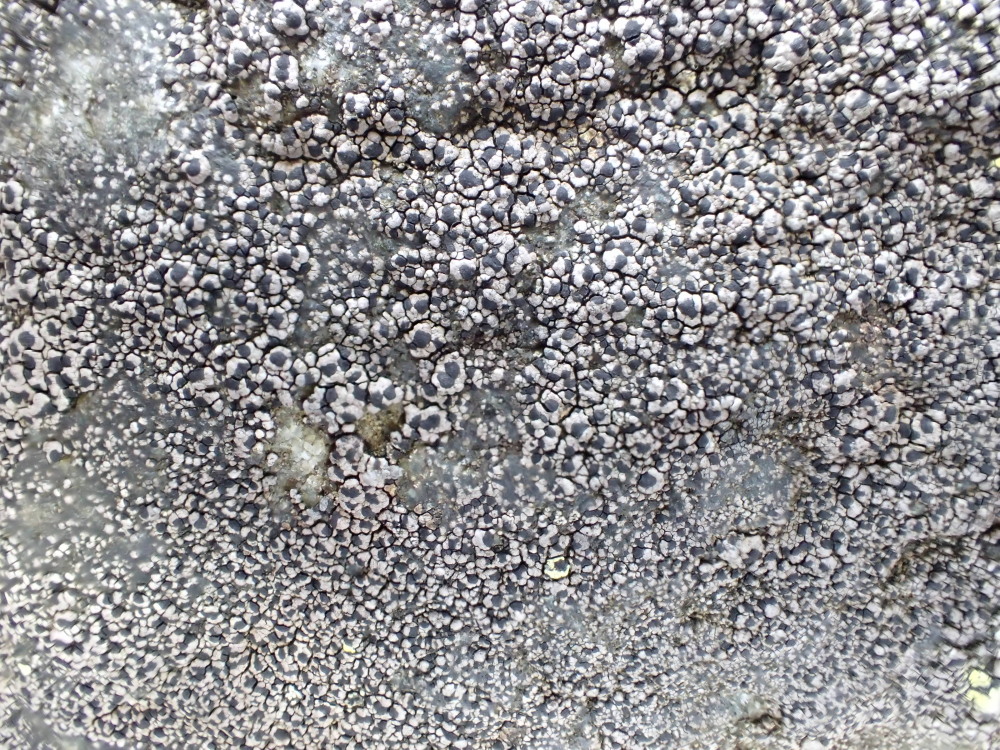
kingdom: Fungi
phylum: Ascomycota
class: Lecanoromycetes
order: Rhizocarpales
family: Rhizocarpaceae
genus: Rhizocarpon
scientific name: Rhizocarpon reductum
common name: mørk landkortlav
